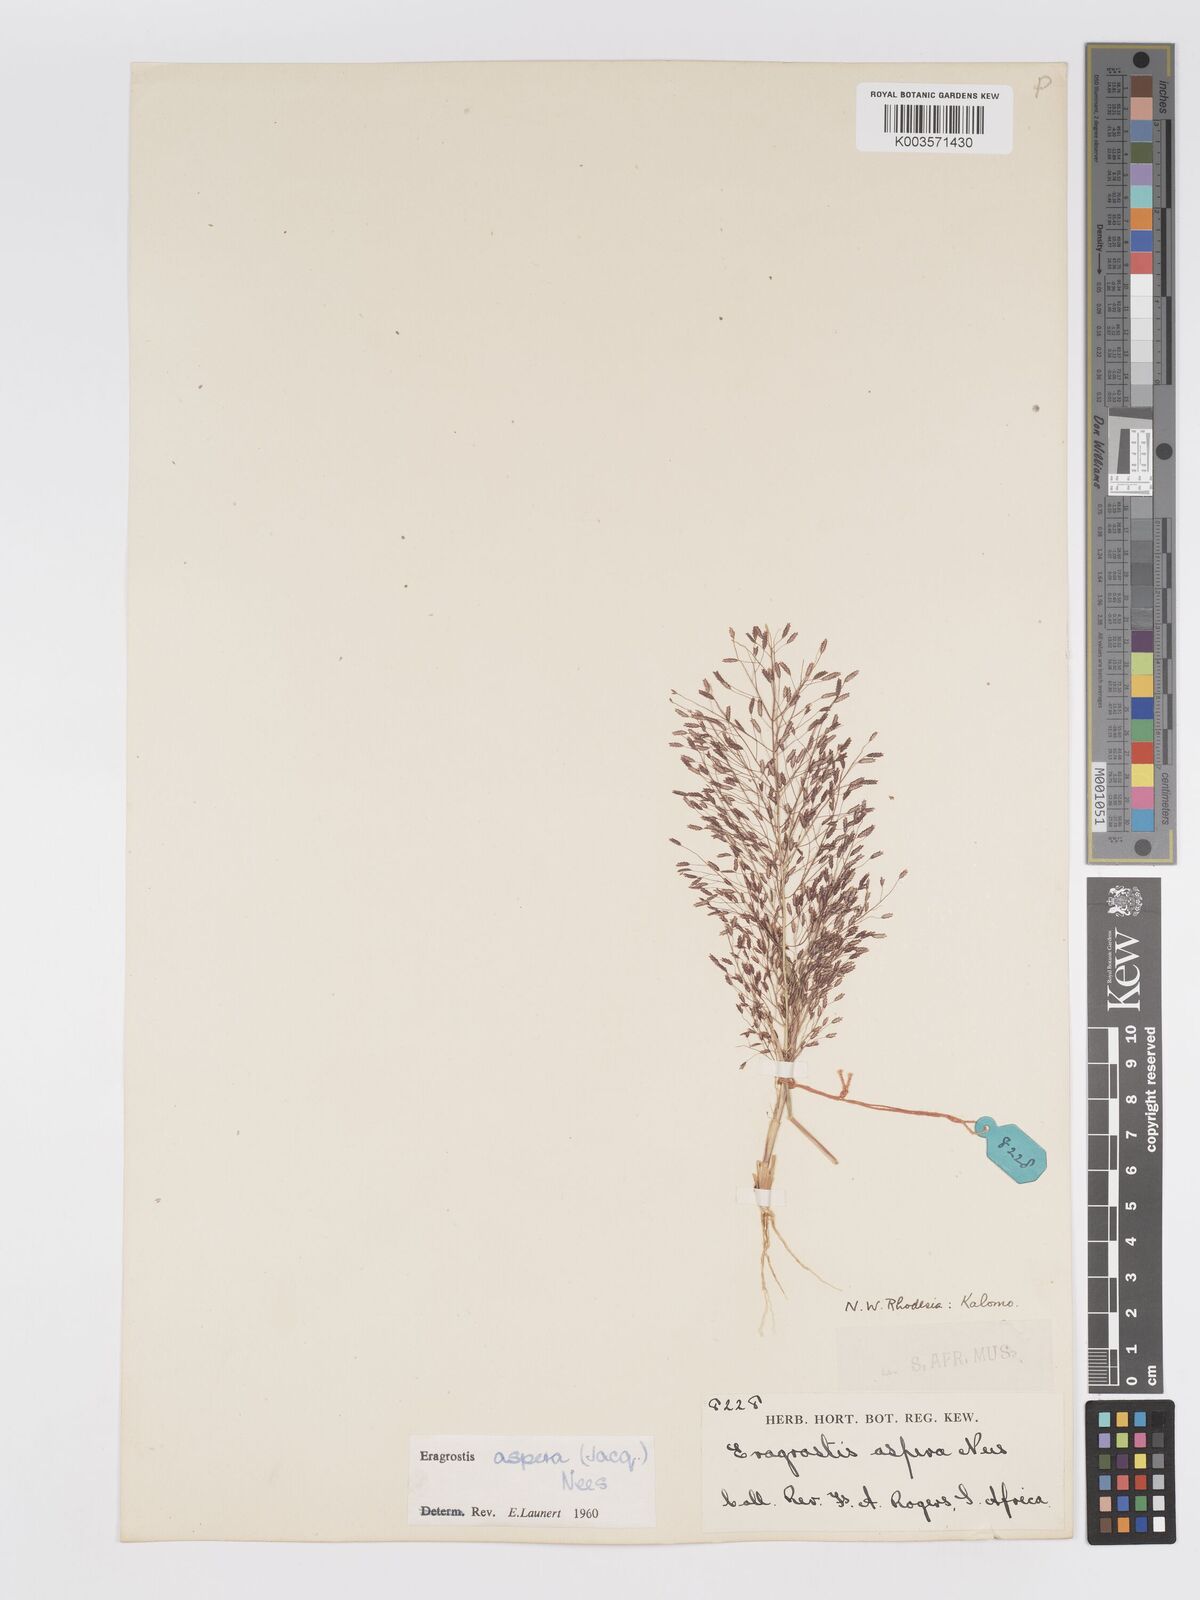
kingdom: Plantae
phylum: Tracheophyta
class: Liliopsida
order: Poales
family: Poaceae
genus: Eragrostis
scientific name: Eragrostis aspera
